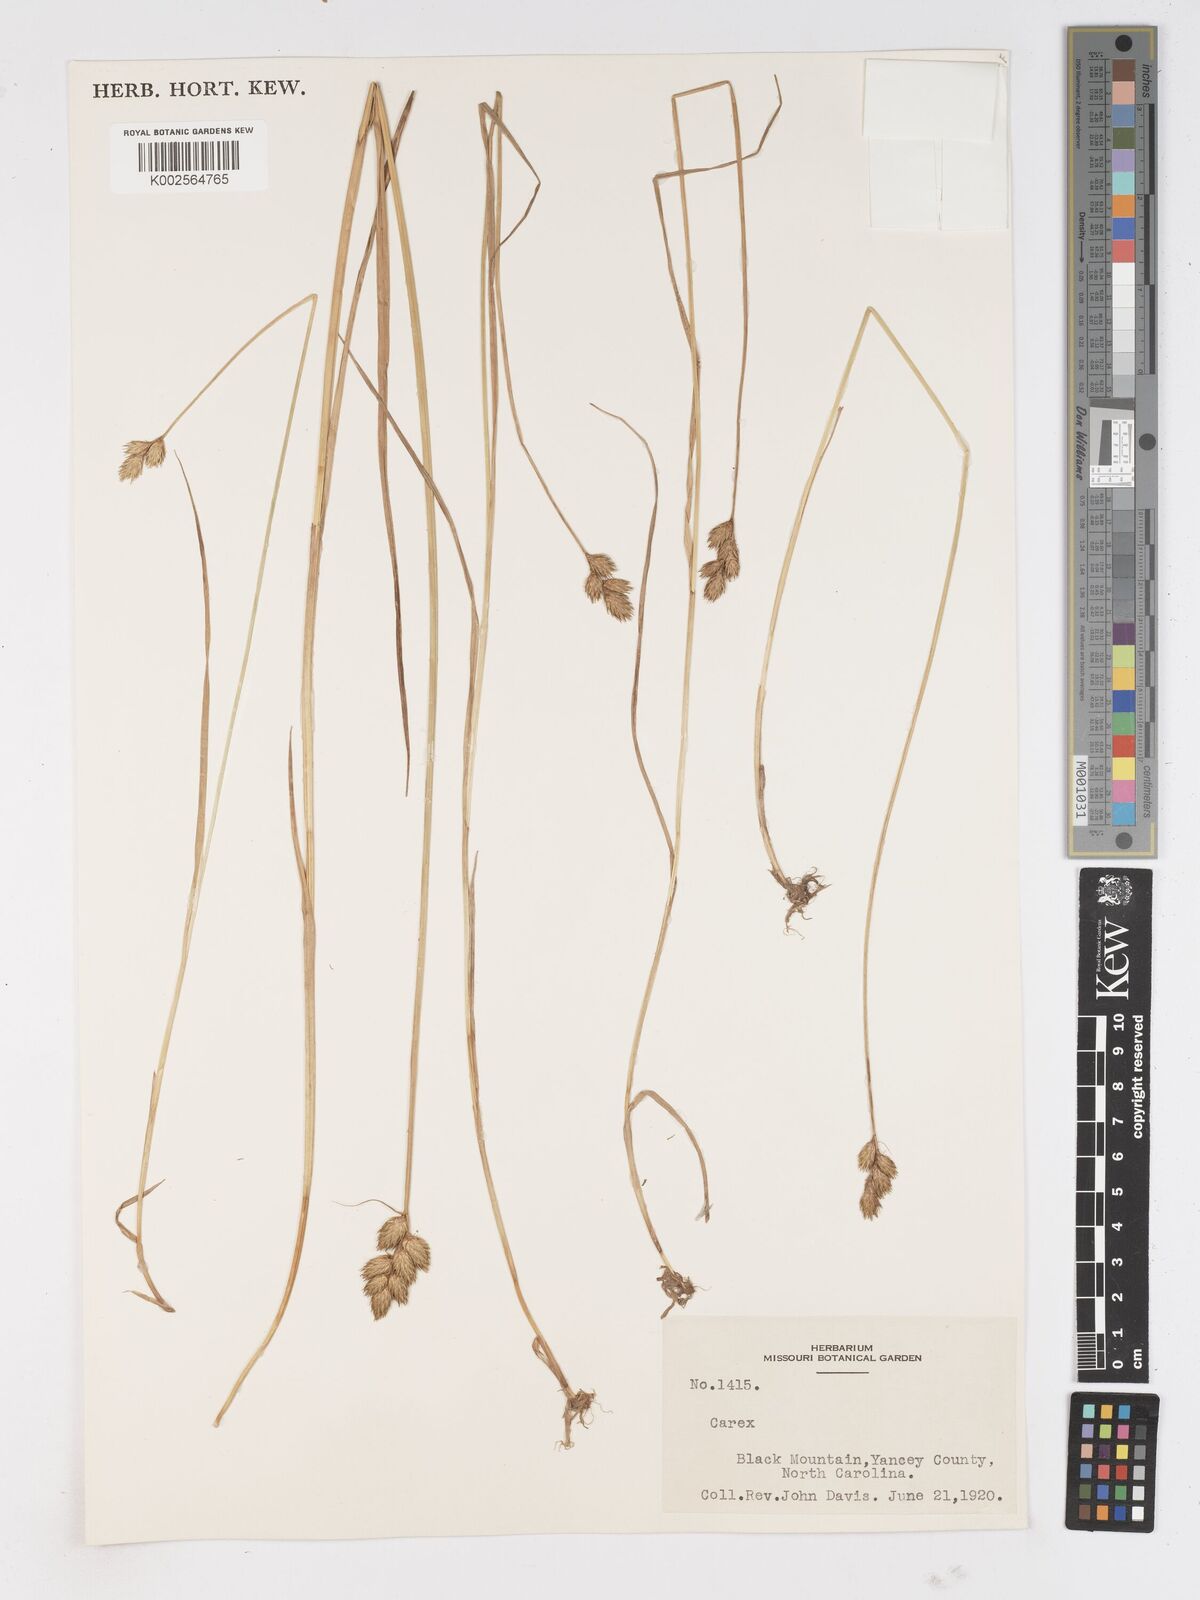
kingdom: Plantae
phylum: Tracheophyta
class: Liliopsida
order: Poales
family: Cyperaceae
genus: Carex
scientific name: Carex
